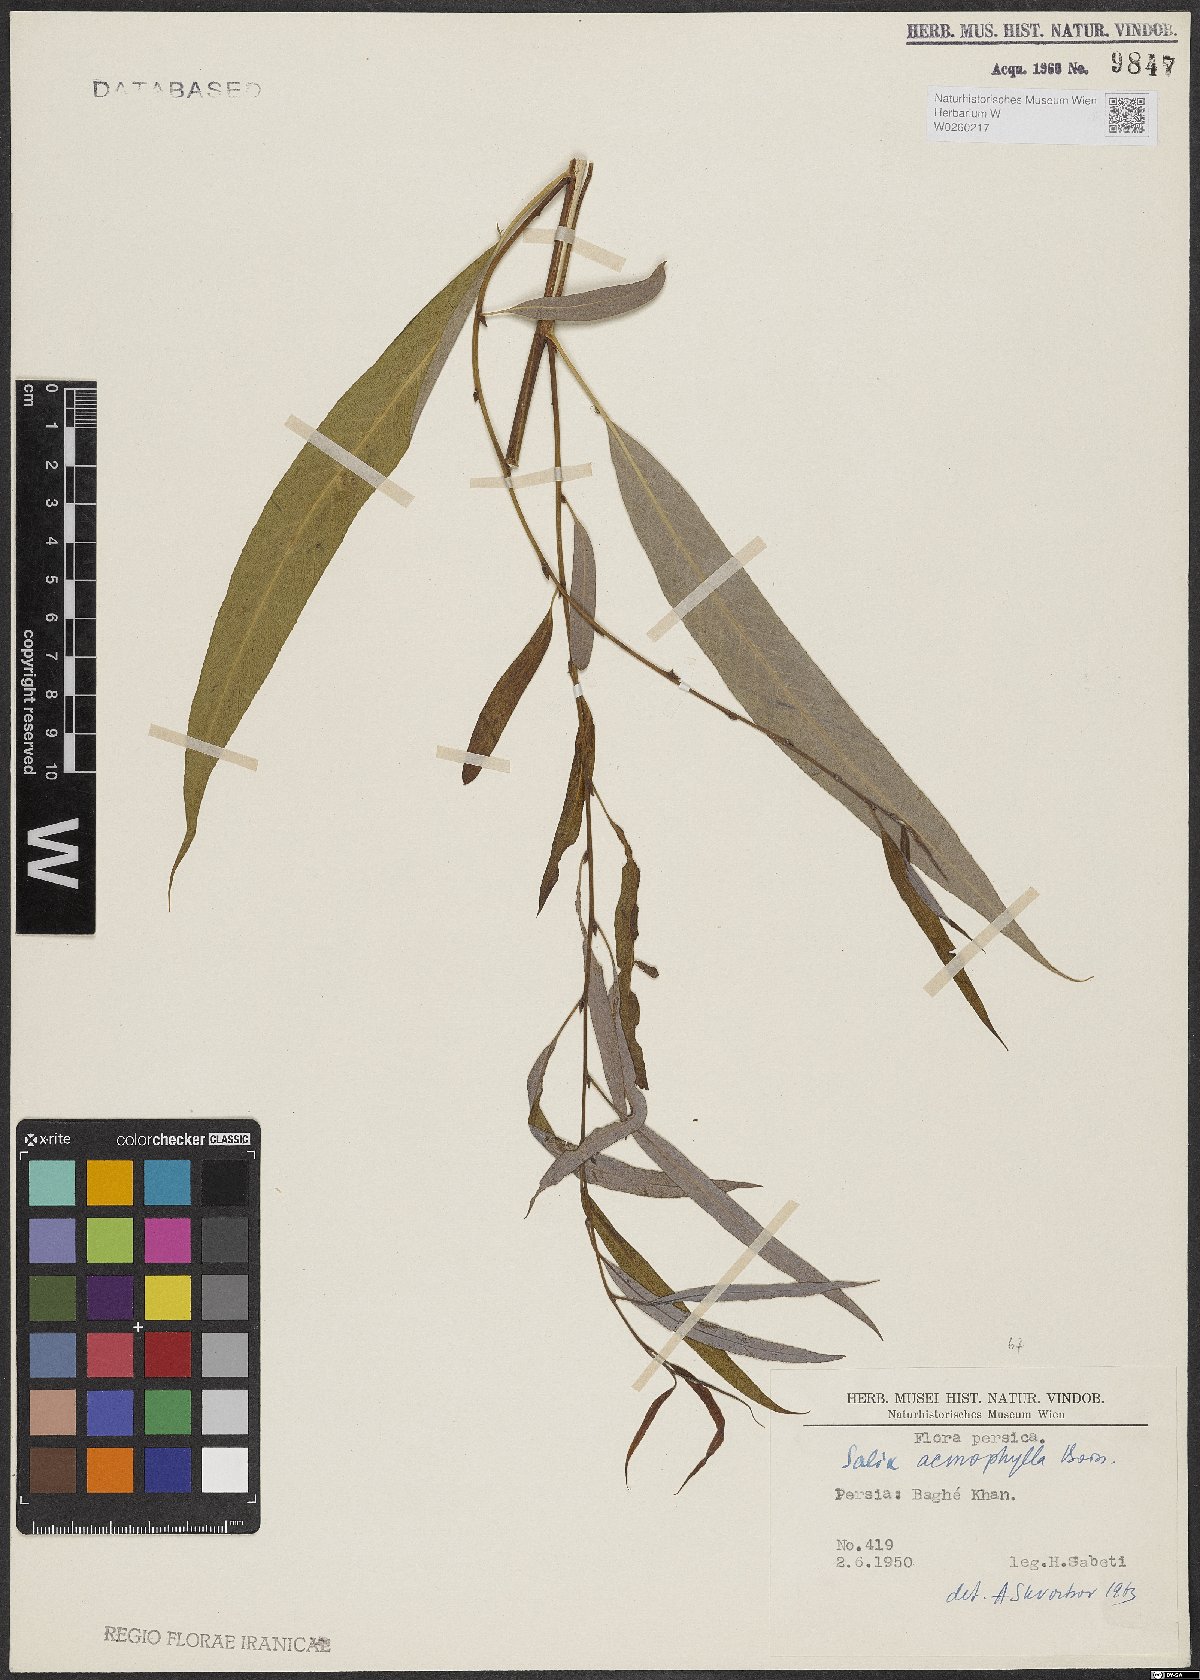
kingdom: Plantae
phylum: Tracheophyta
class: Magnoliopsida
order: Malpighiales
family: Salicaceae
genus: Salix
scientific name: Salix acmophylla
